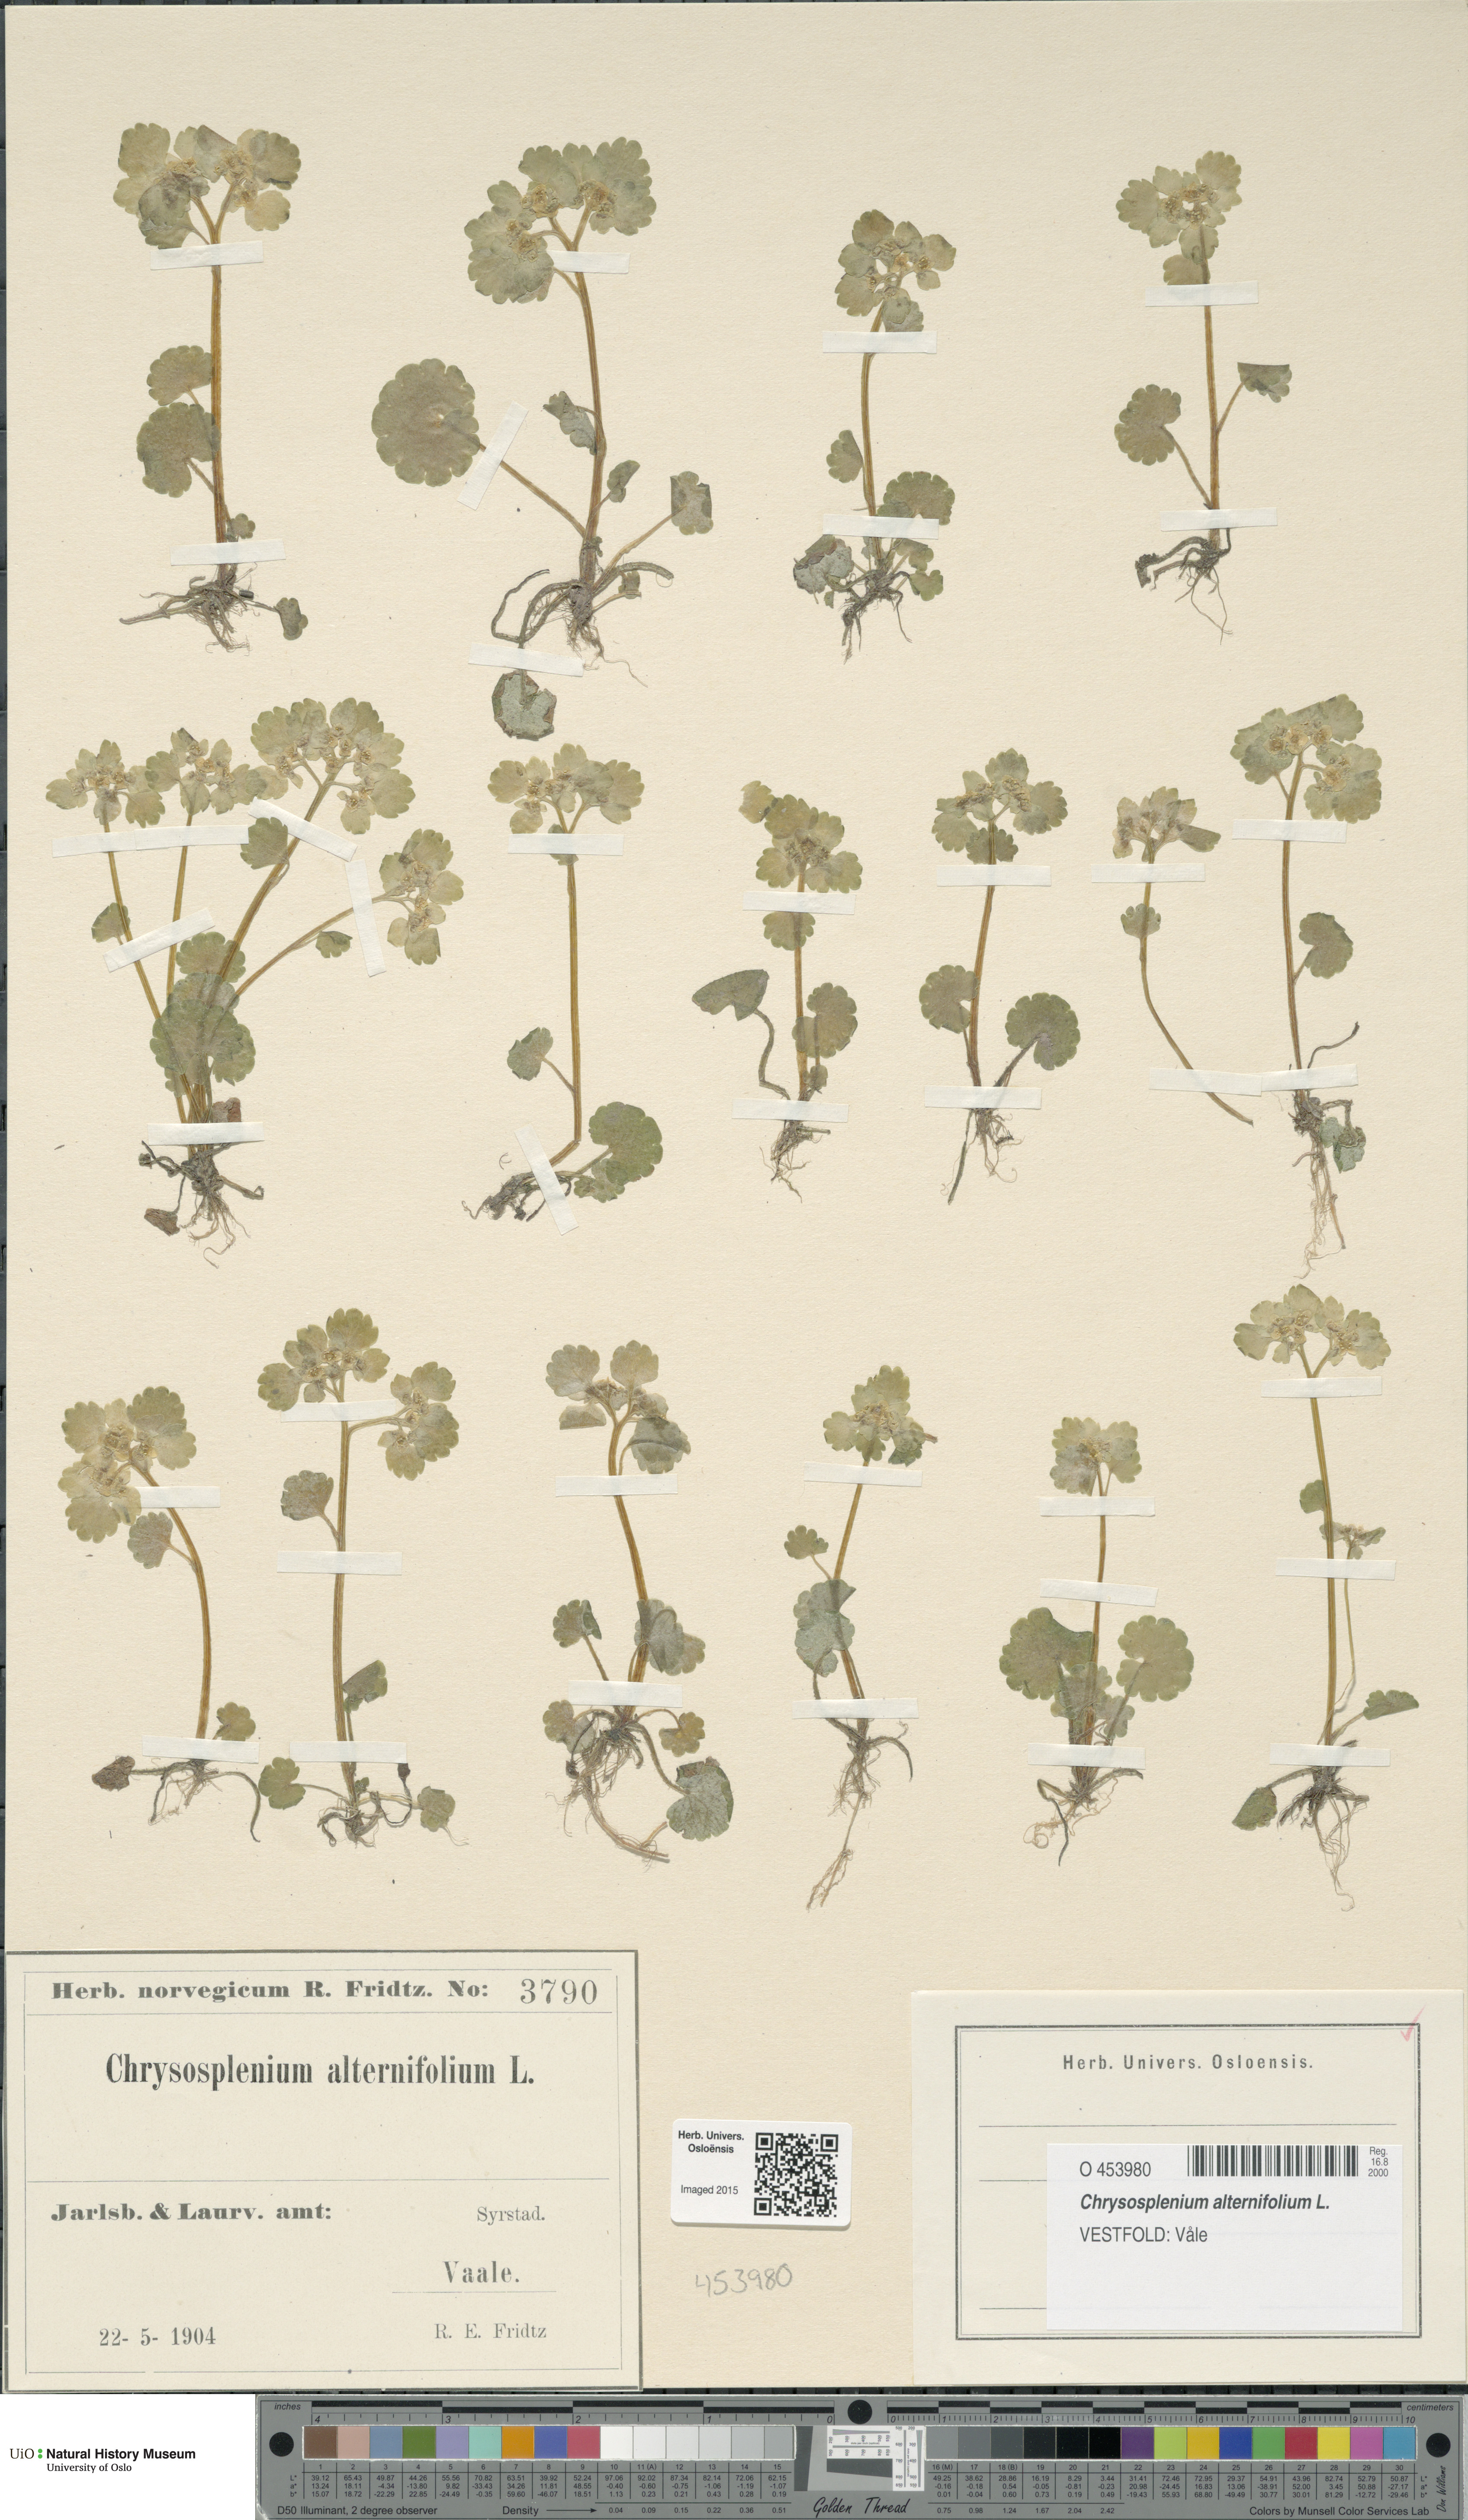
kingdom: Plantae
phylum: Tracheophyta
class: Magnoliopsida
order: Saxifragales
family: Saxifragaceae
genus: Chrysosplenium
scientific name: Chrysosplenium alternifolium
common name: Alternate-leaved golden-saxifrage
